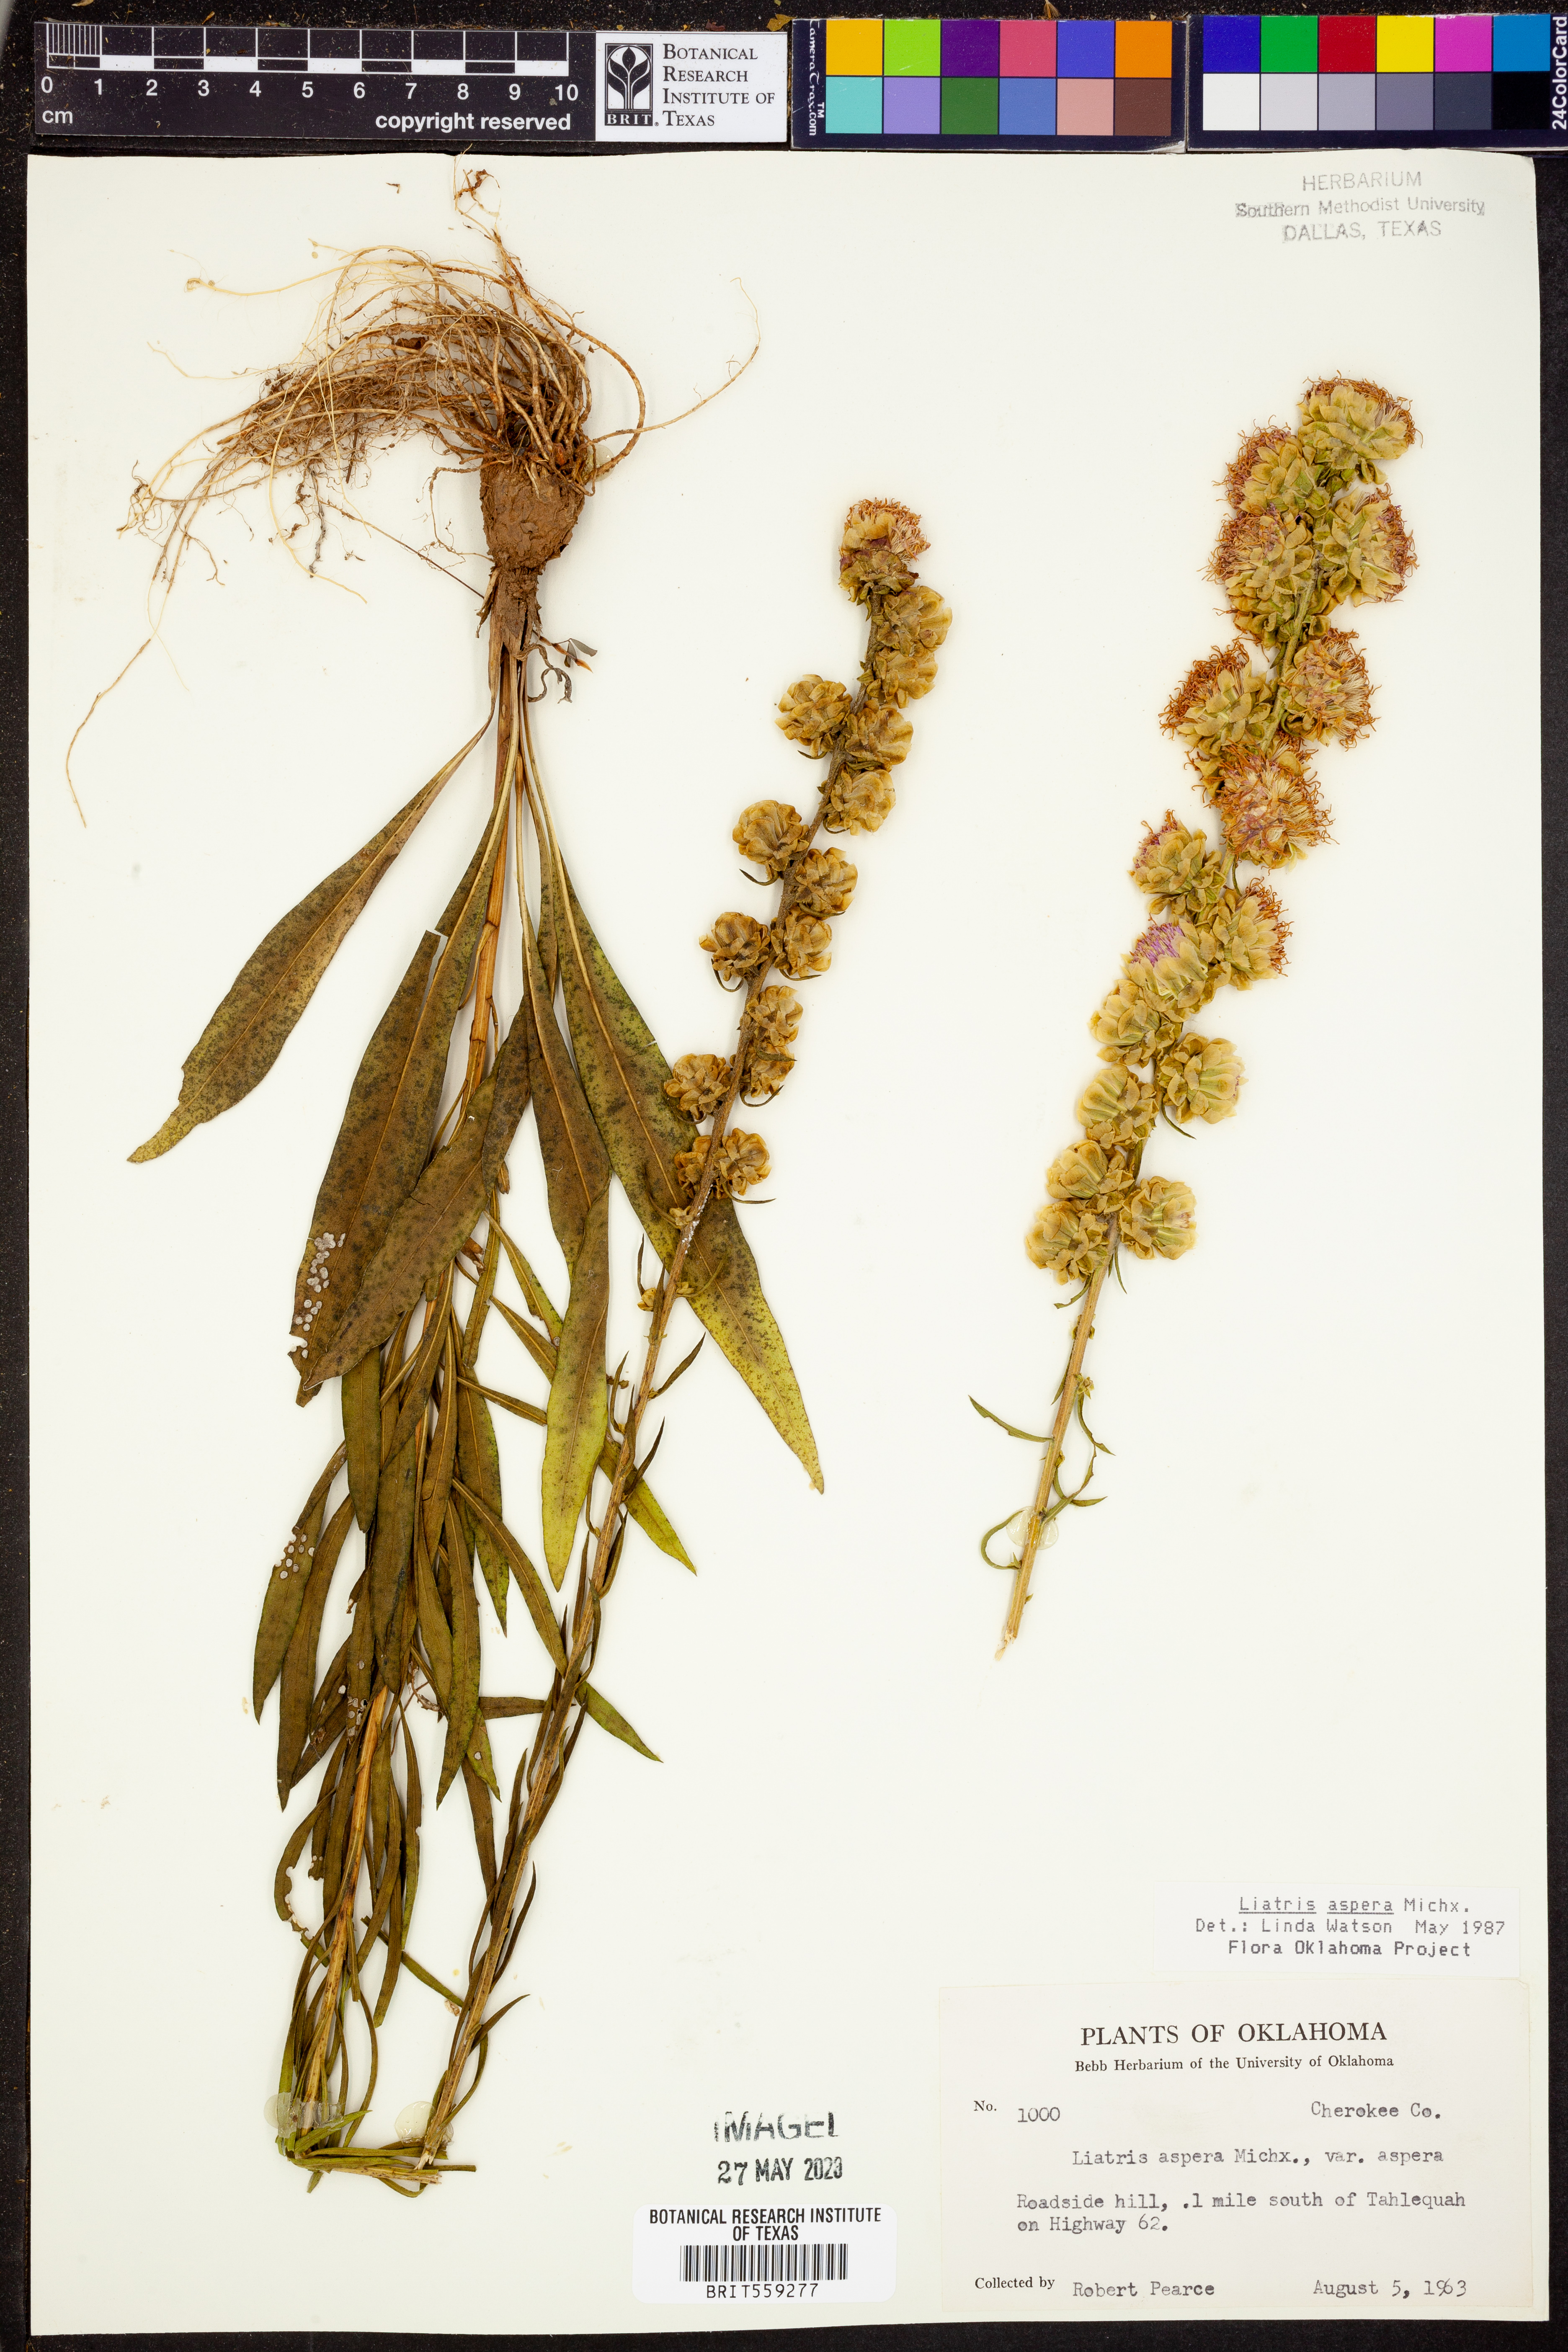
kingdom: Plantae
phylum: Tracheophyta
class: Magnoliopsida
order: Asterales
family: Asteraceae
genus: Liatris
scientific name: Liatris aspera
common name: Lacerate blazing-star
